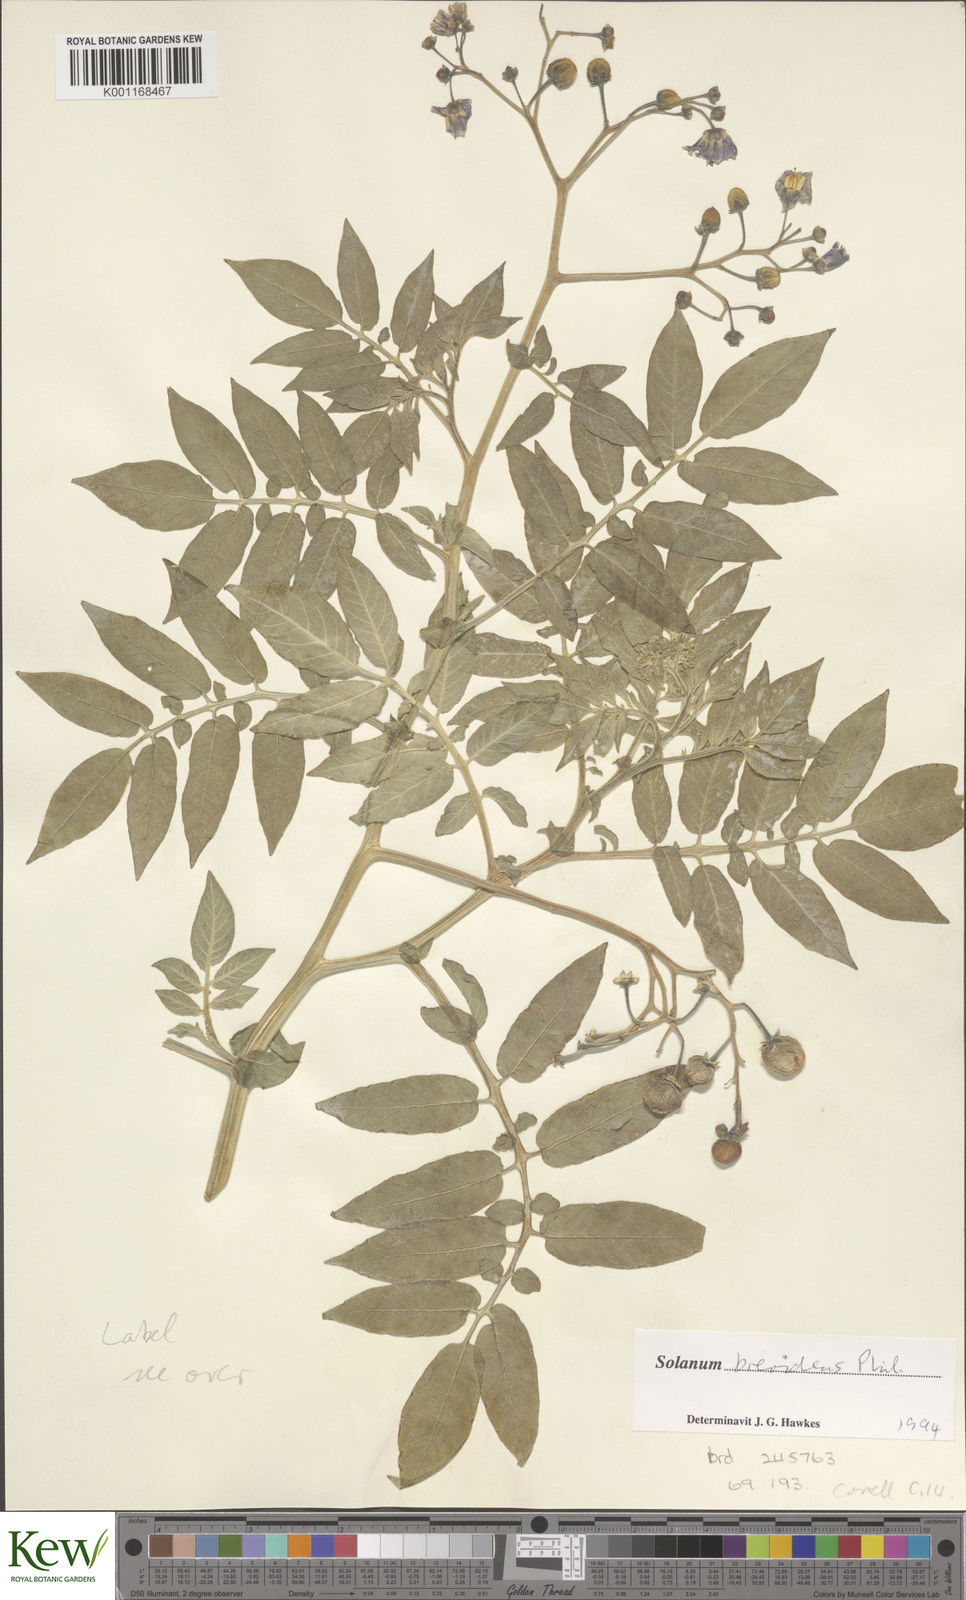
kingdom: Plantae
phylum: Tracheophyta
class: Magnoliopsida
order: Solanales
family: Solanaceae
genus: Solanum
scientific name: Solanum palustre
